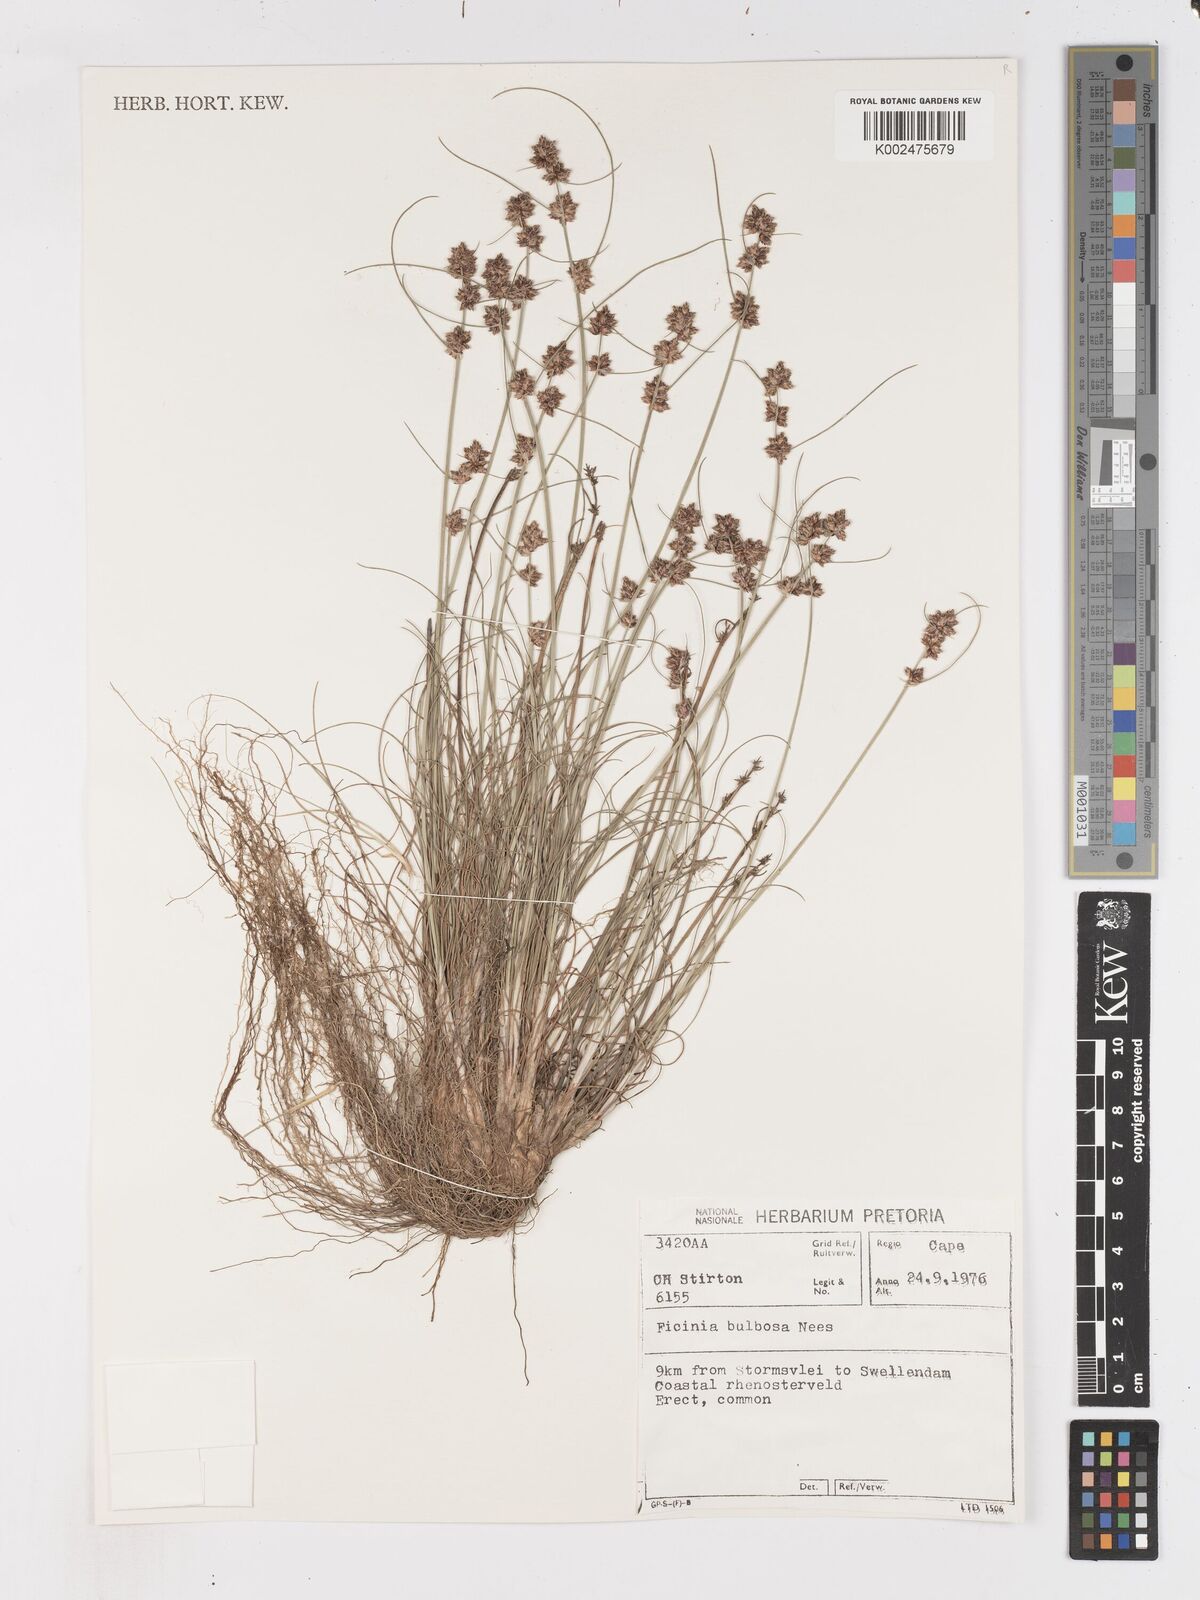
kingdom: Plantae
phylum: Tracheophyta
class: Liliopsida
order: Poales
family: Cyperaceae
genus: Ficinia
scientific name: Ficinia bulbosa
